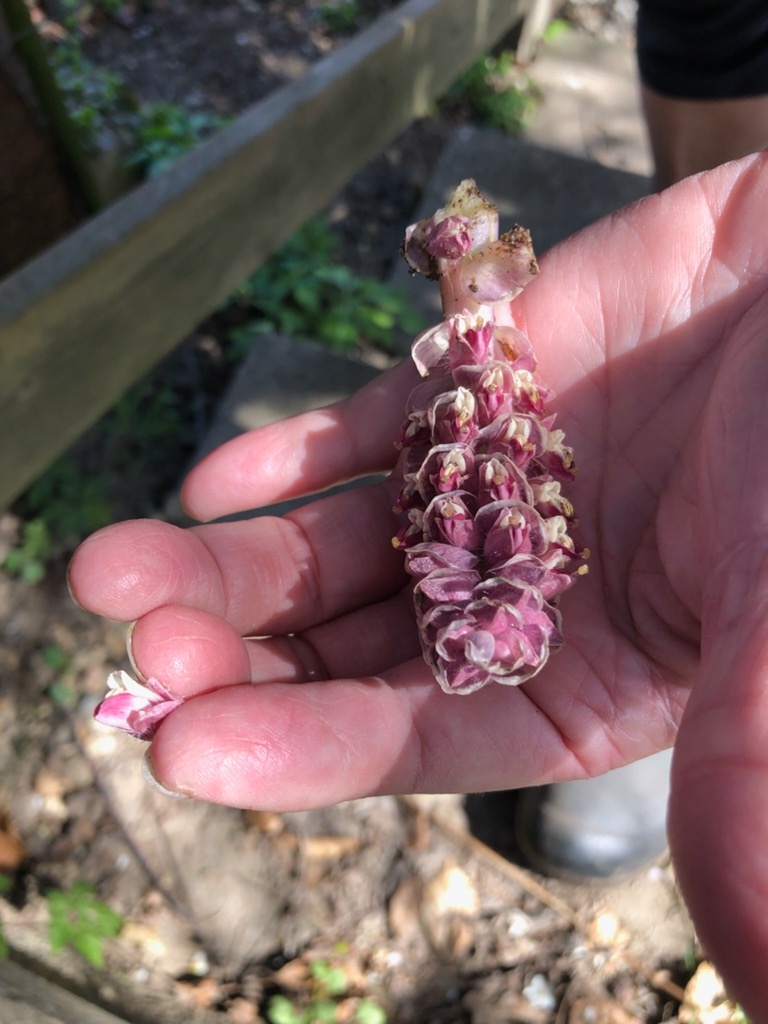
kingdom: Plantae
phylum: Tracheophyta
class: Magnoliopsida
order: Lamiales
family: Orobanchaceae
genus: Lathraea
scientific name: Lathraea squamaria
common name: Skælrod
